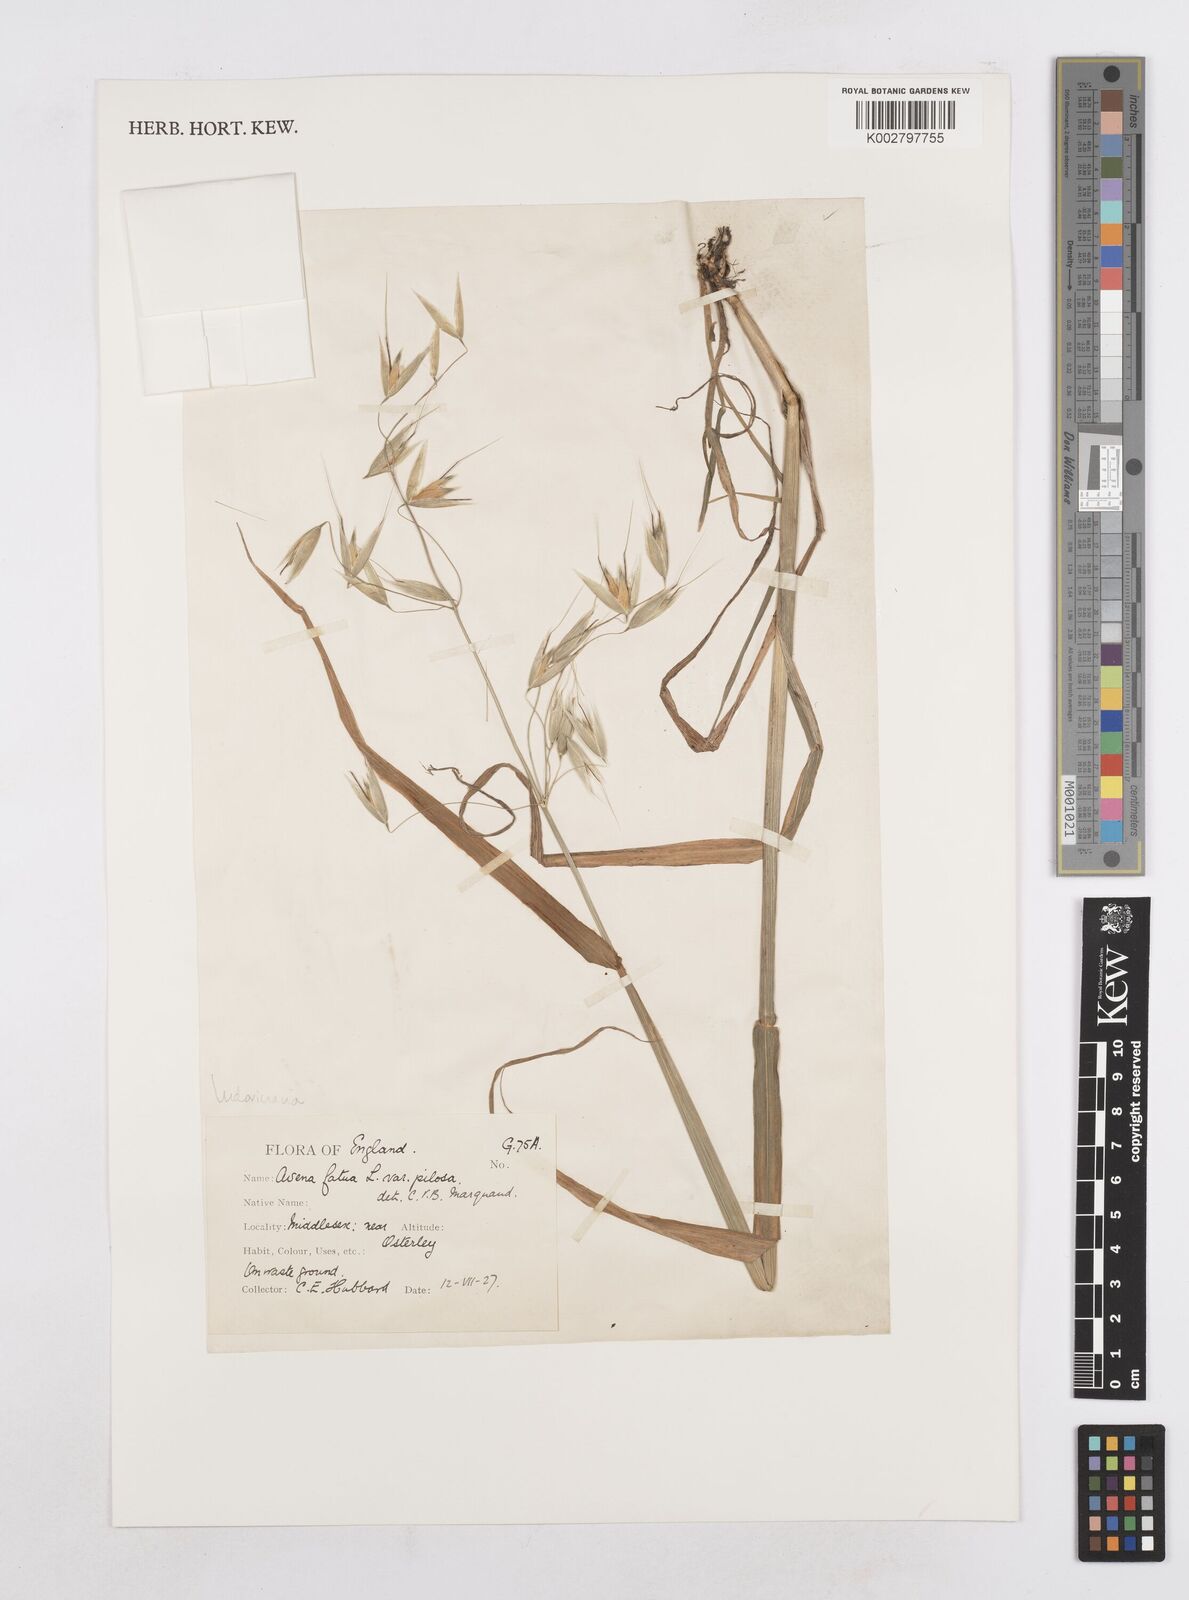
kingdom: Plantae
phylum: Tracheophyta
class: Liliopsida
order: Poales
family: Poaceae
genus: Avena
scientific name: Avena sterilis
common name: Animated oat
